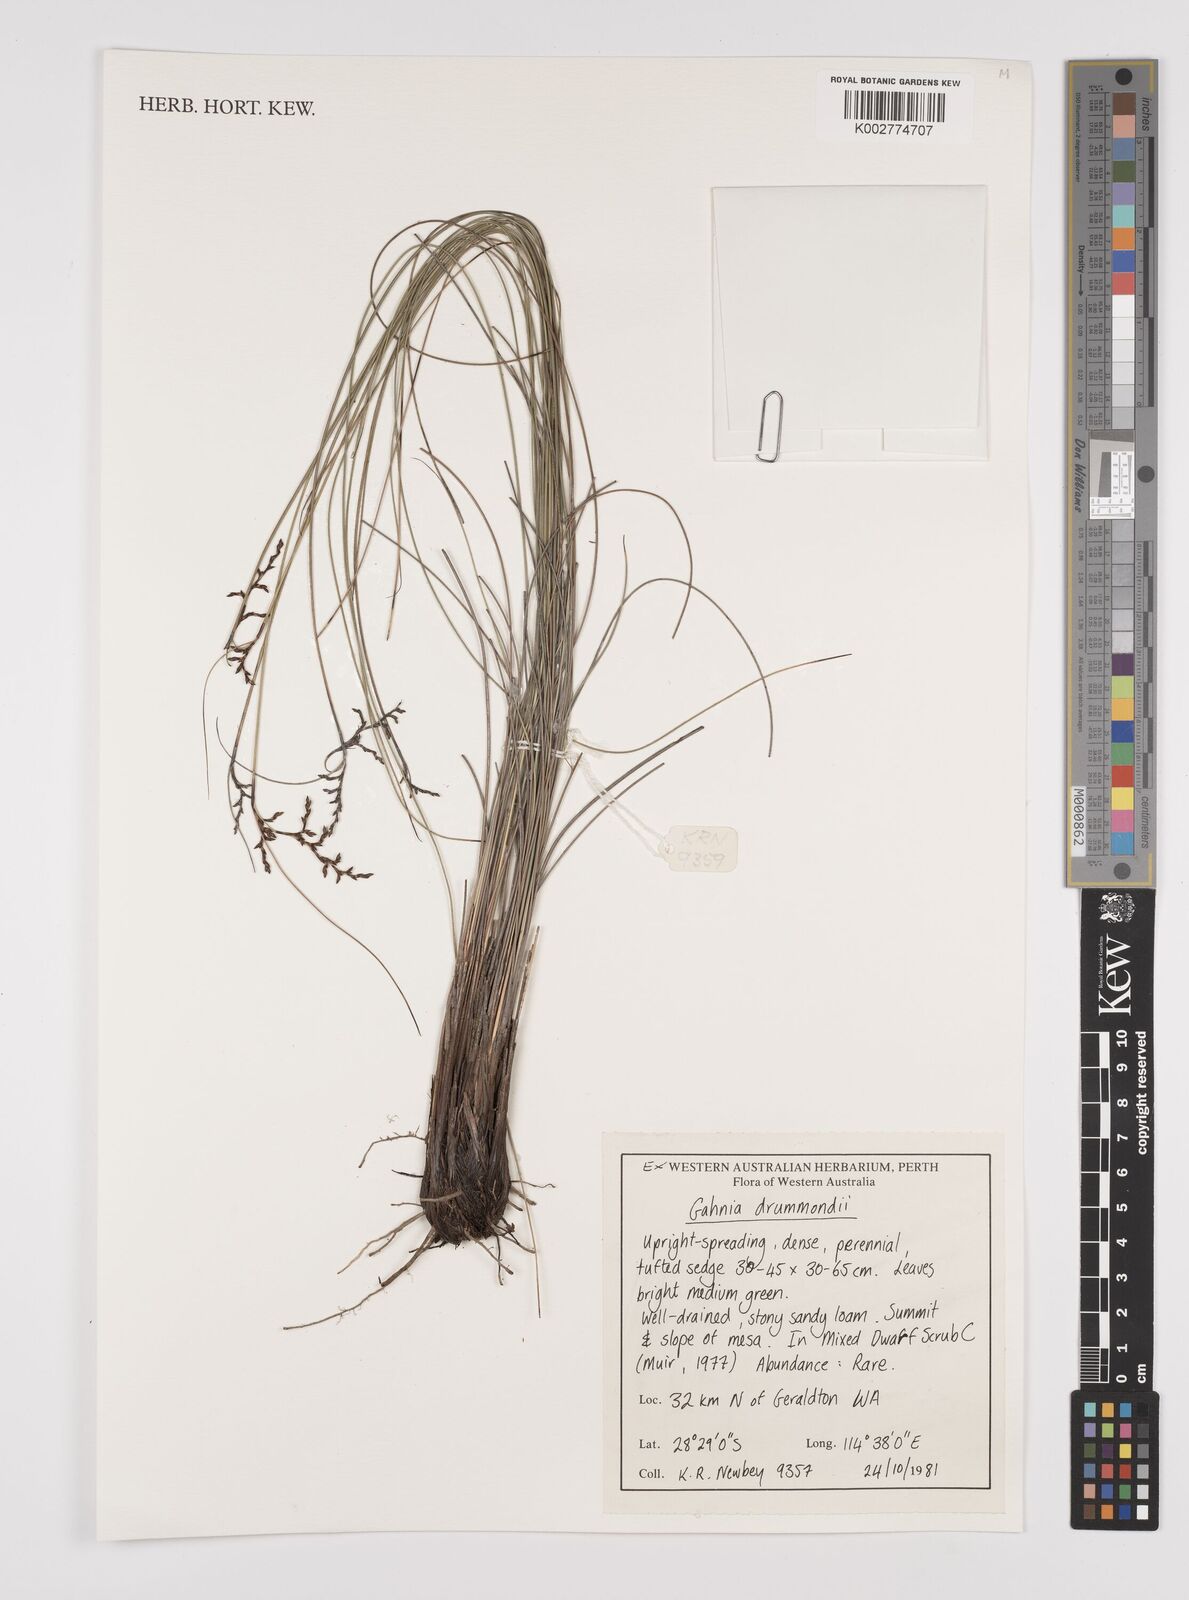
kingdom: Plantae
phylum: Tracheophyta
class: Liliopsida
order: Poales
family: Cyperaceae
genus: Gahnia
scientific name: Gahnia drummondii
